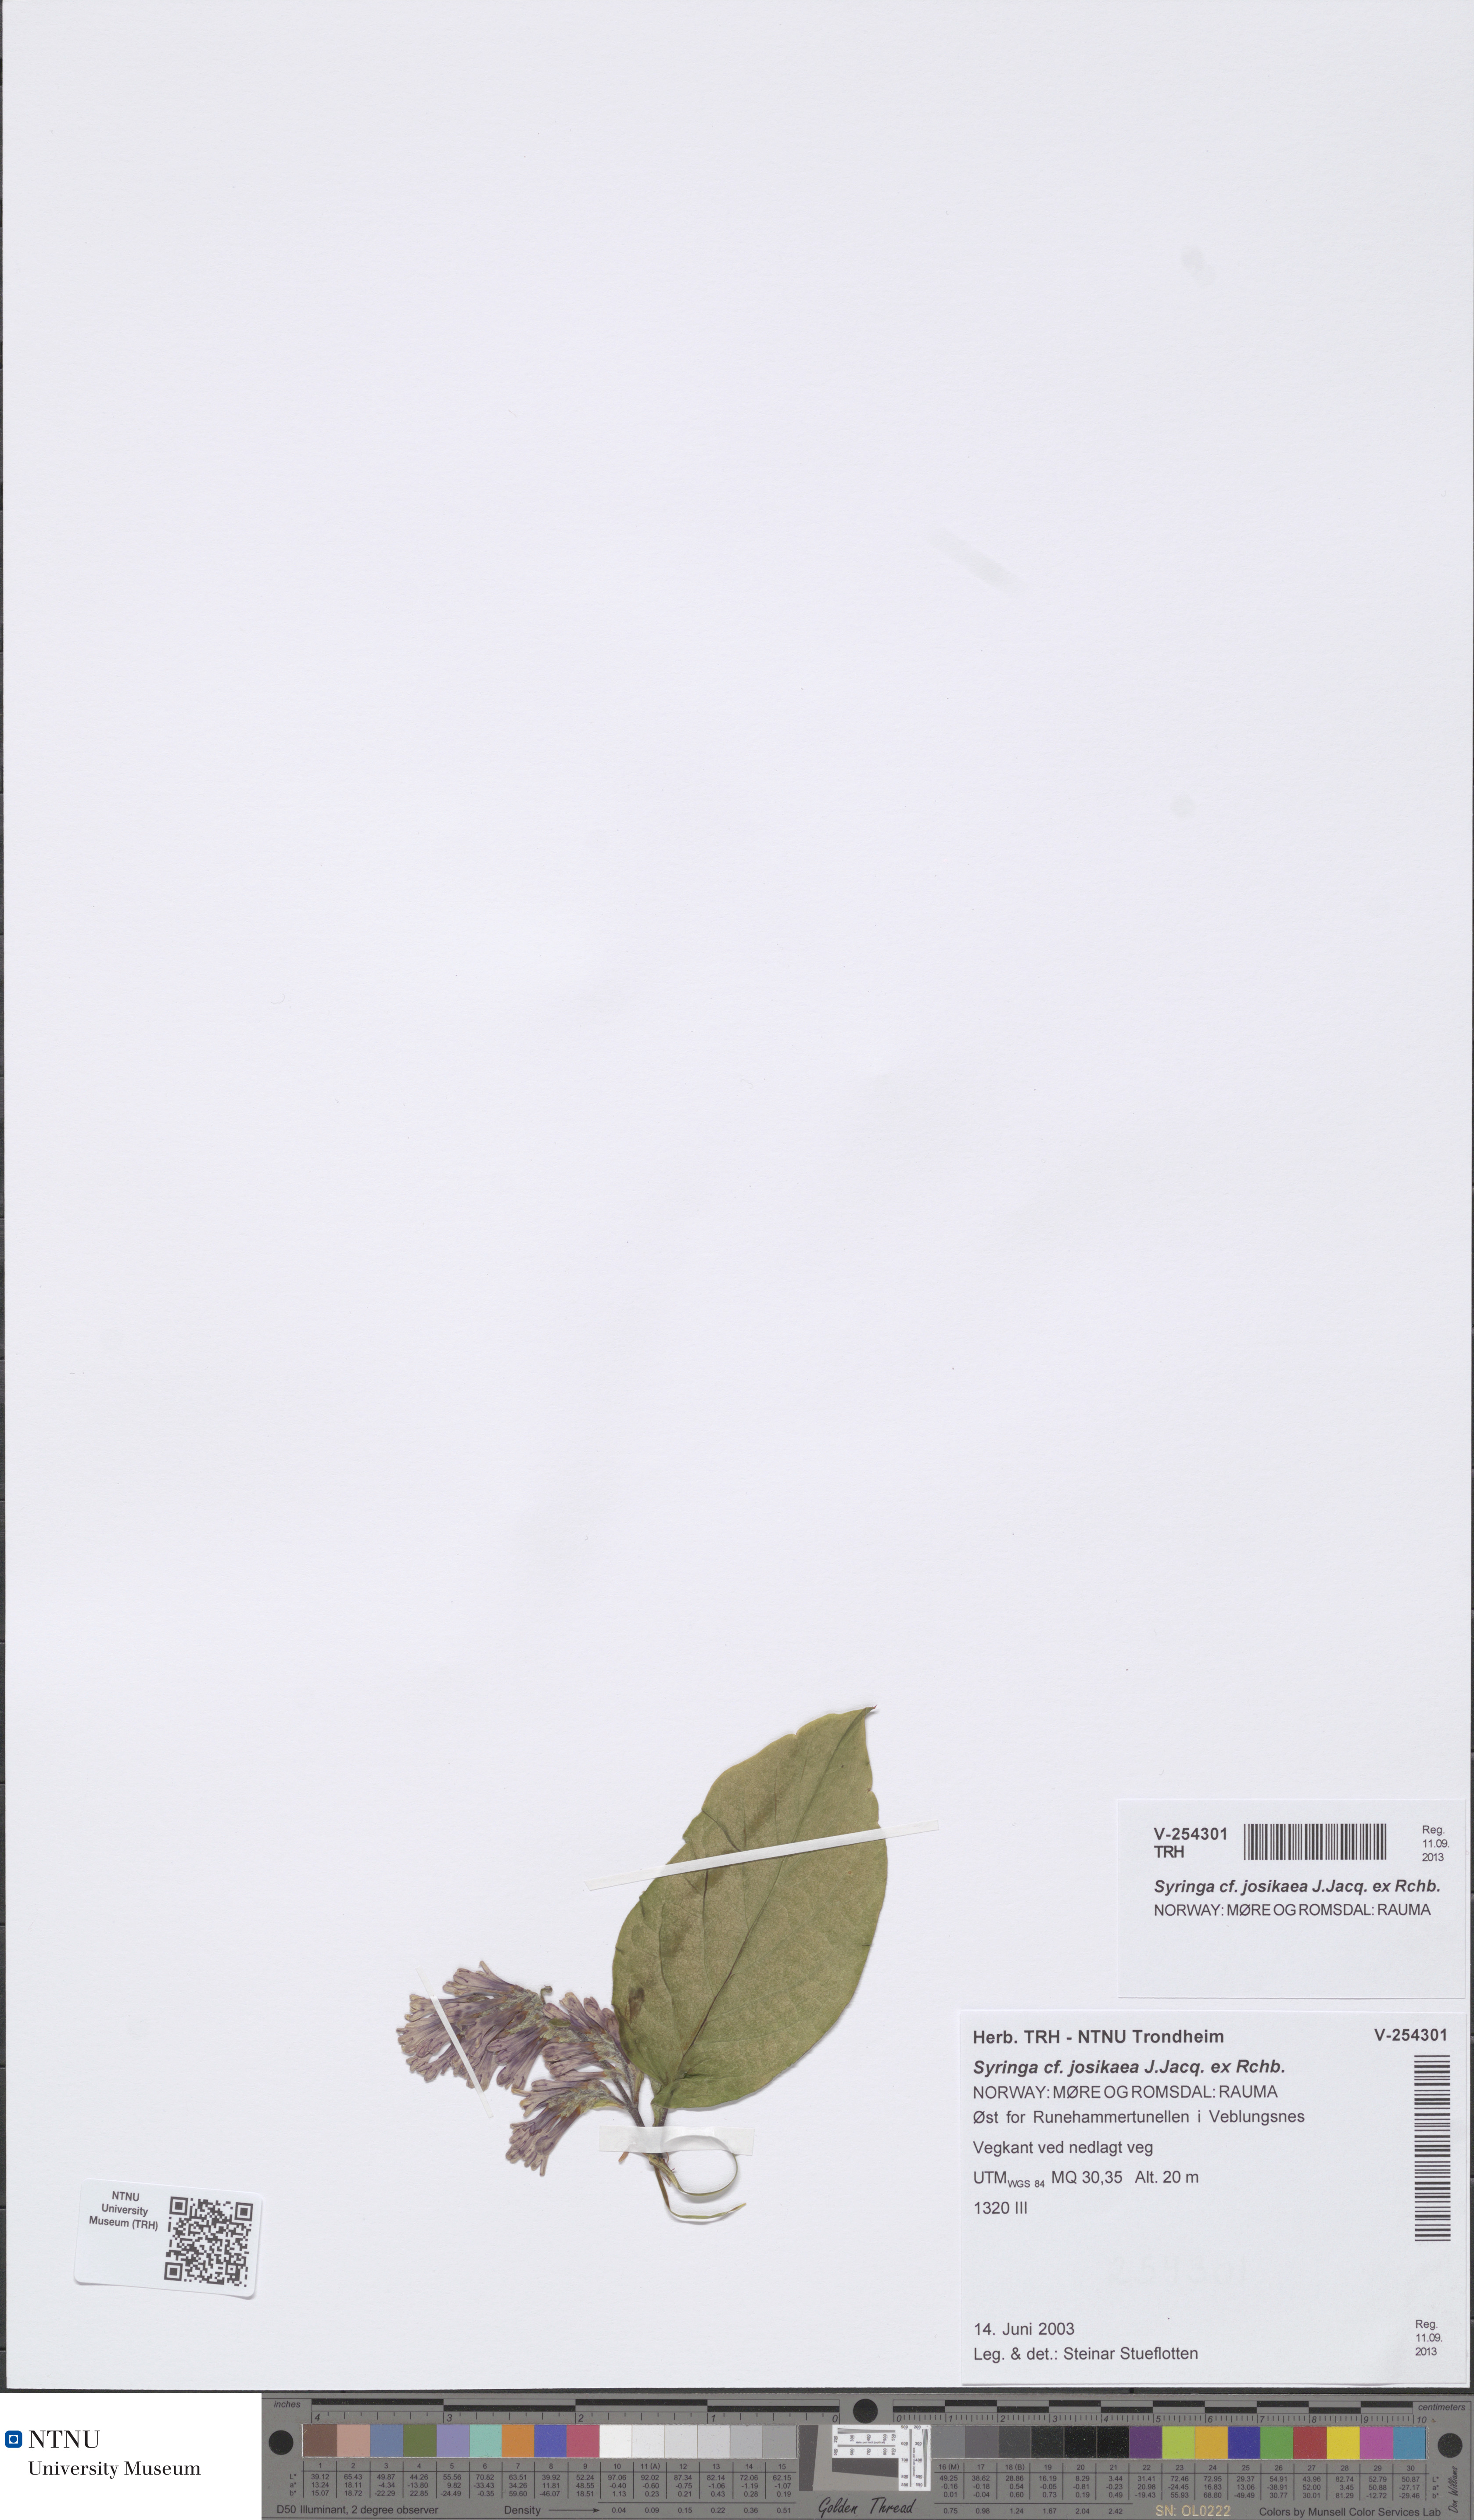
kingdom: Plantae
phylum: Tracheophyta
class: Magnoliopsida
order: Lamiales
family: Oleaceae
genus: Syringa
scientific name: Syringa josikaea
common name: Hungarian lilac
